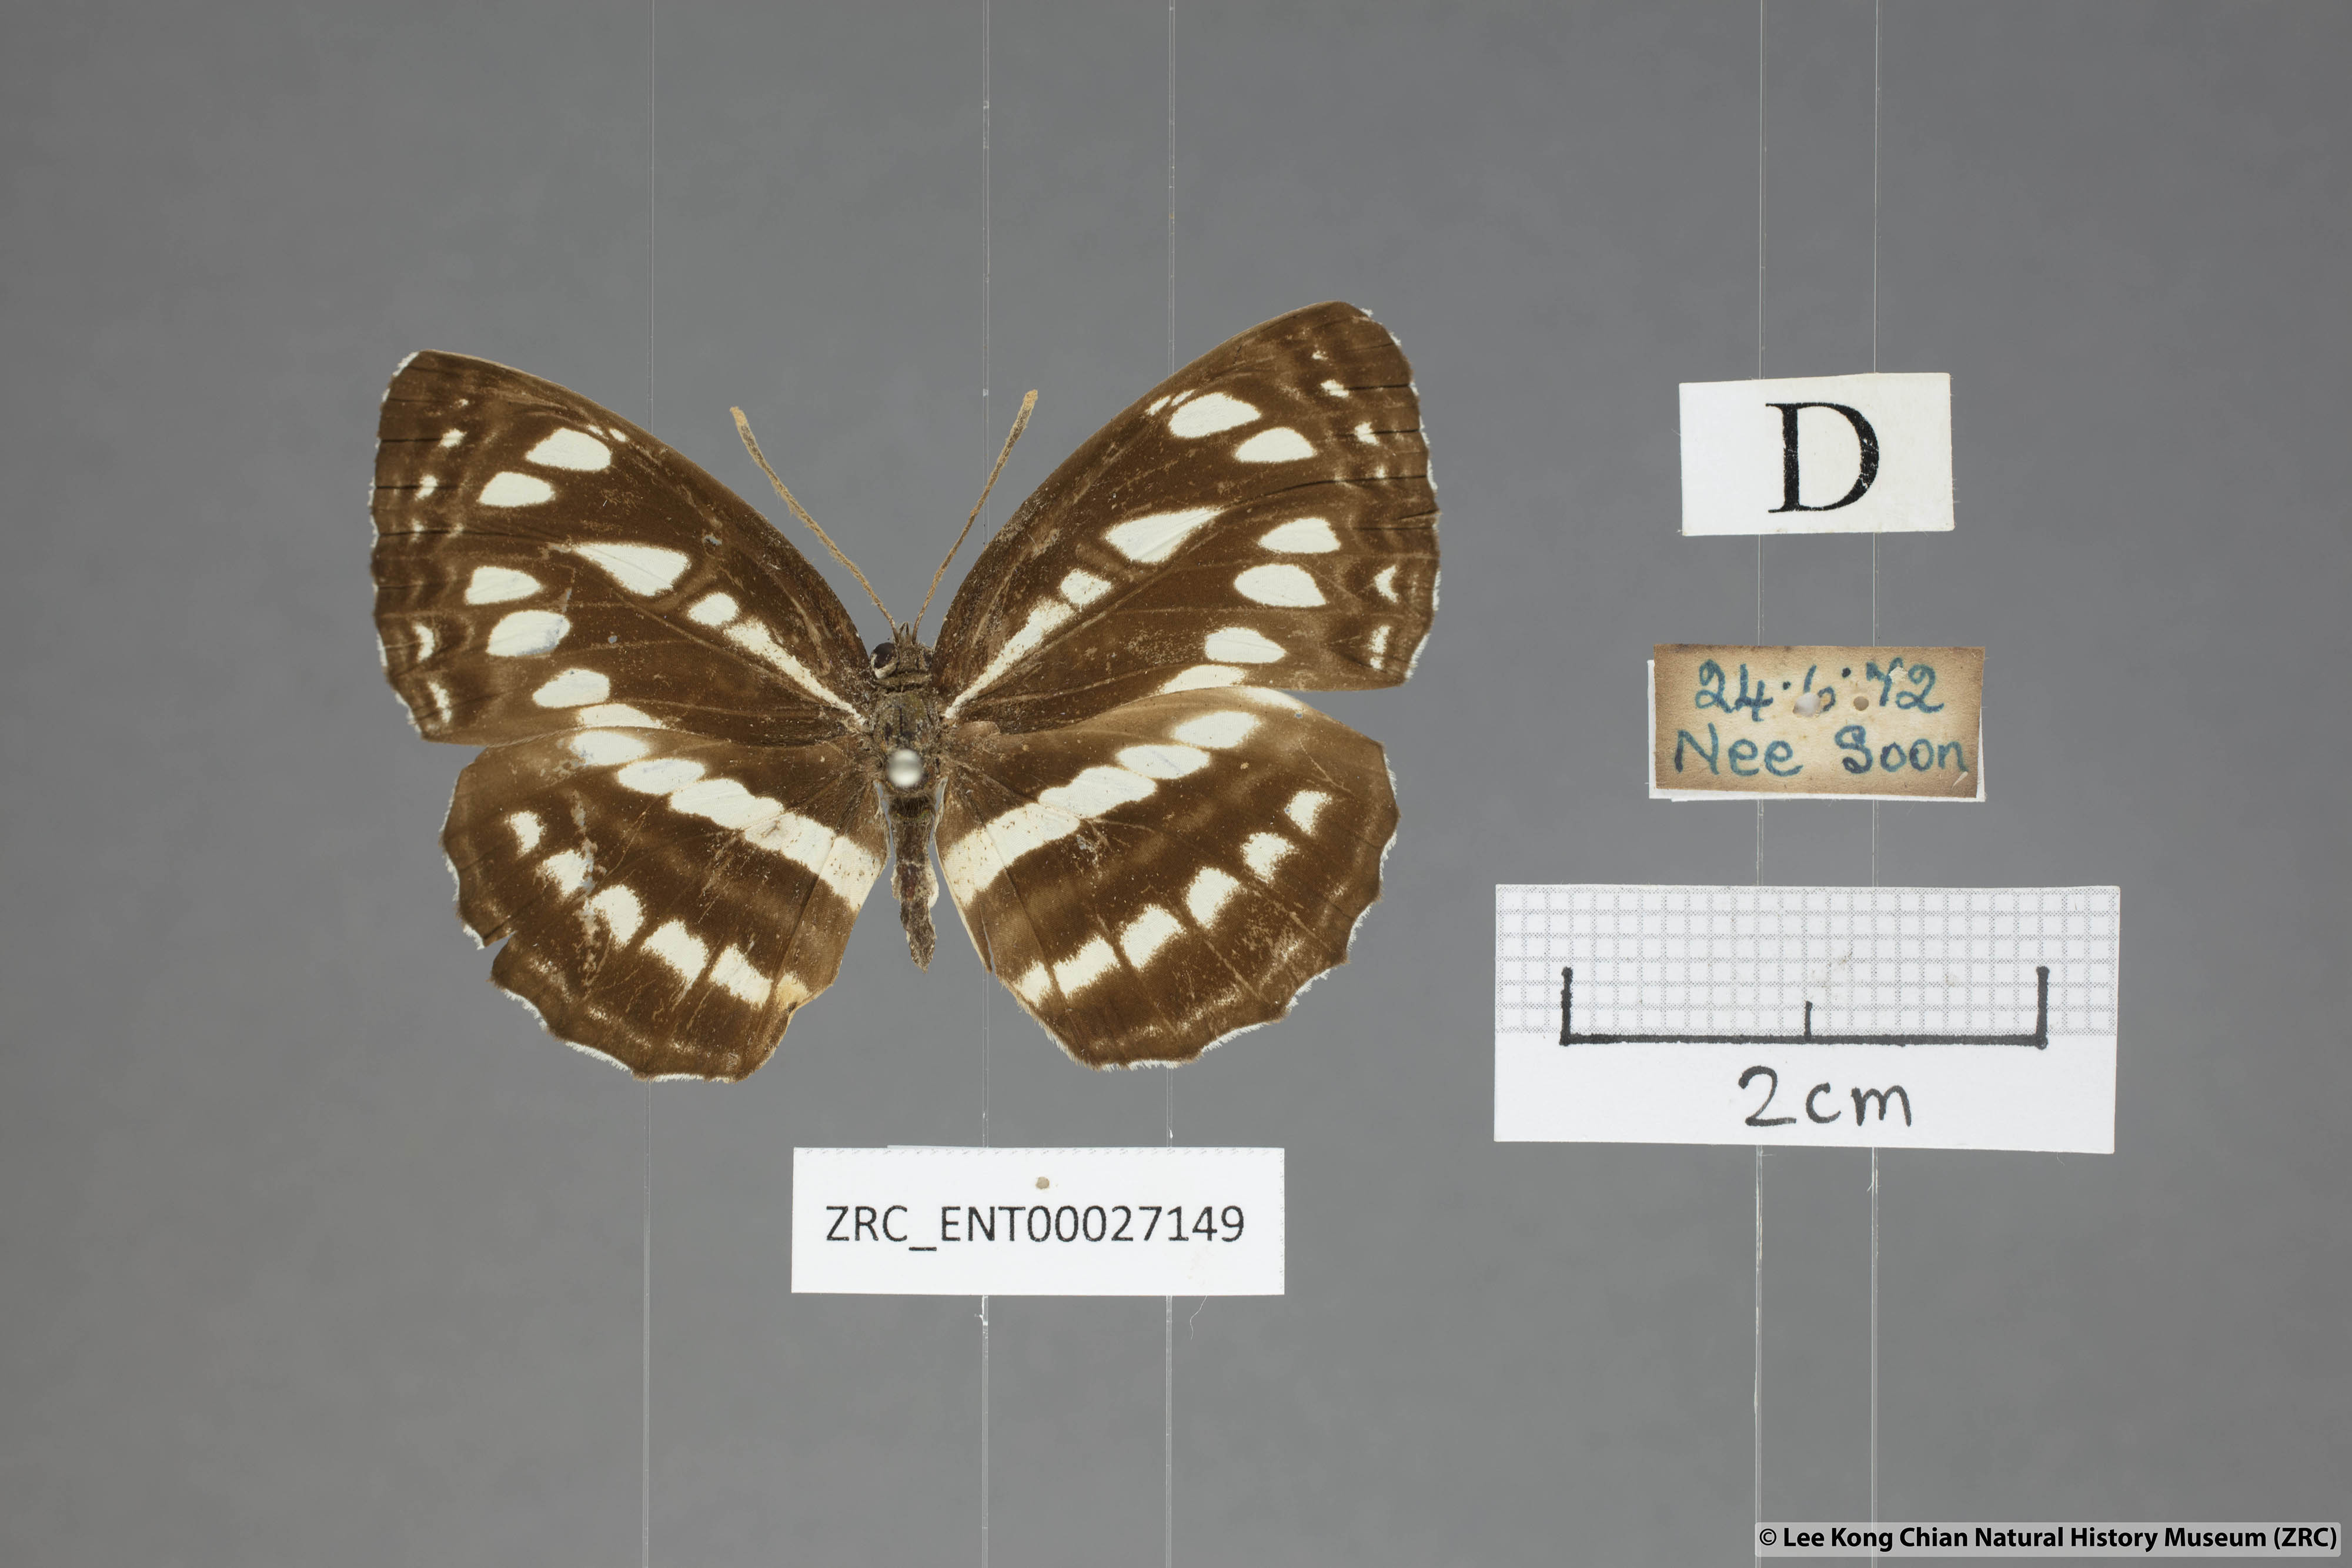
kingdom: Animalia
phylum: Arthropoda
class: Insecta
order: Lepidoptera
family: Nymphalidae
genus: Neptis
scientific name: Neptis hylas
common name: Common sailer
